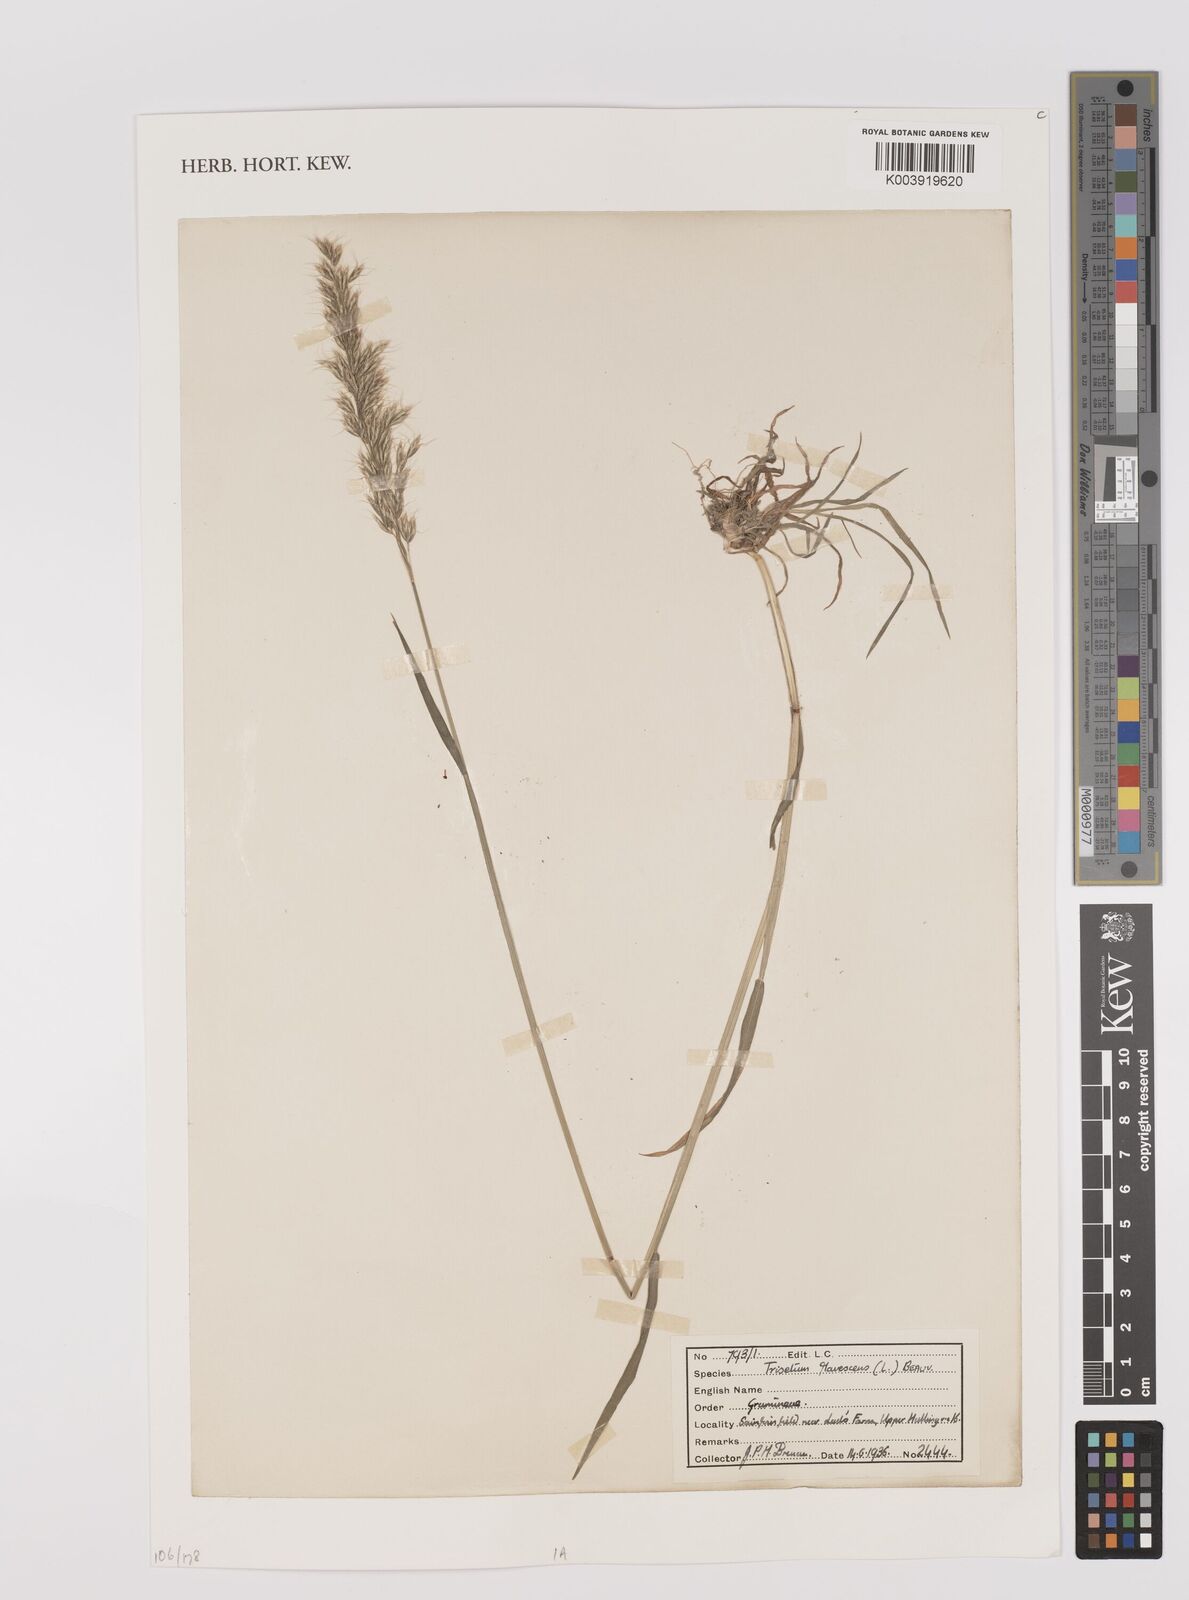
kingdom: Plantae
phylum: Tracheophyta
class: Liliopsida
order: Poales
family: Poaceae
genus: Trisetum
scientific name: Trisetum flavescens
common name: Yellow oat-grass
